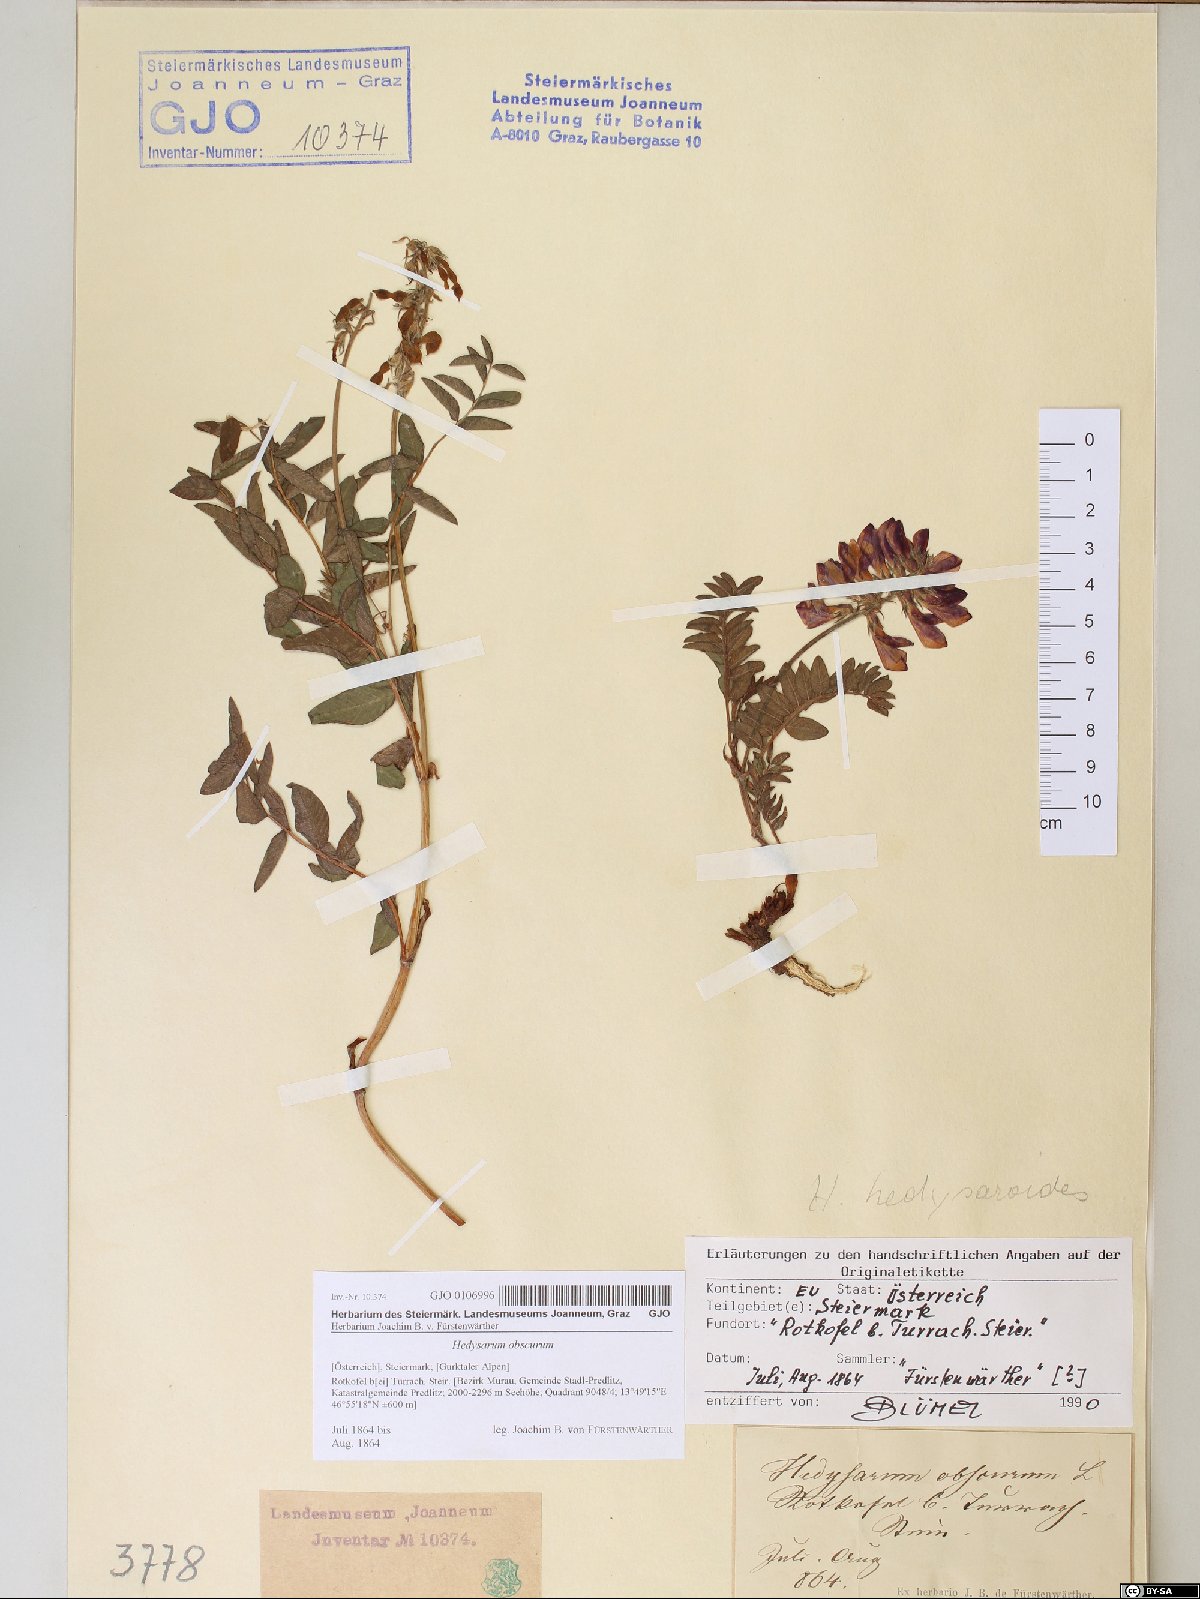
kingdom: Plantae
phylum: Tracheophyta
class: Magnoliopsida
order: Fabales
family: Fabaceae
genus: Hedysarum
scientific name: Hedysarum hedysaroides
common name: Alpine french-honeysuckle
